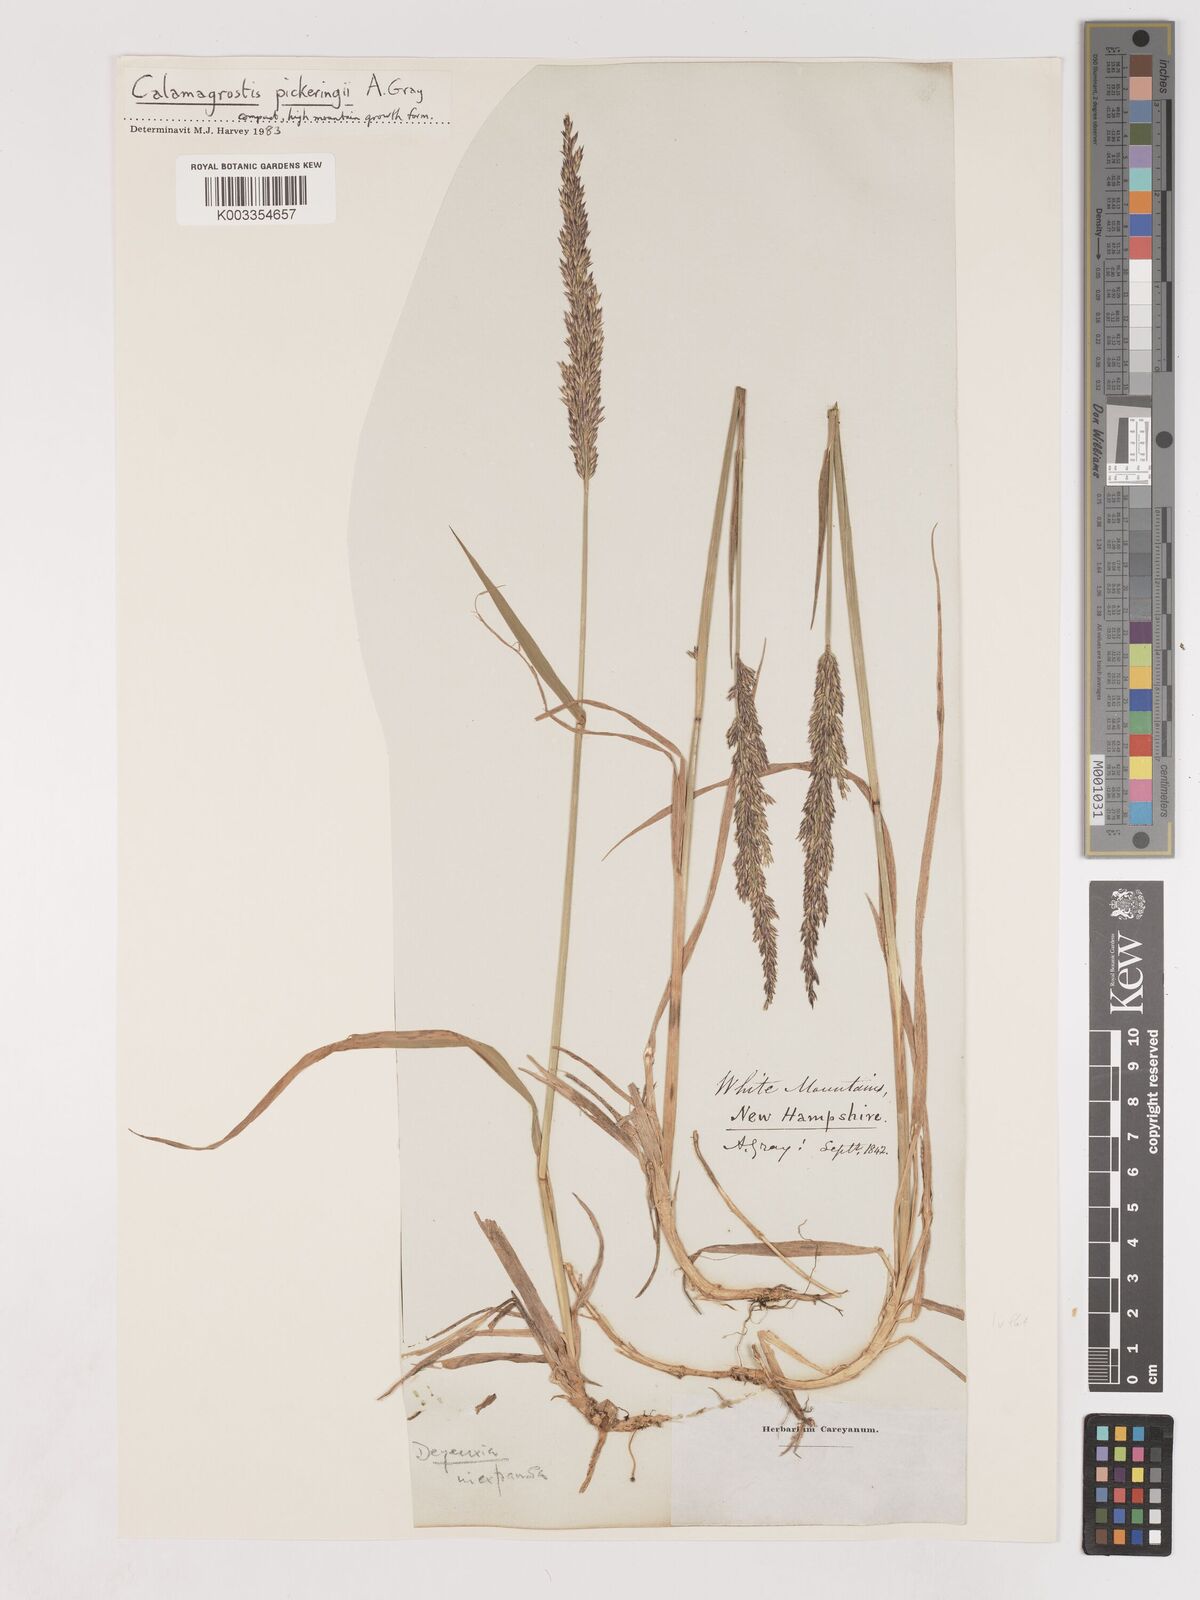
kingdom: Plantae
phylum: Tracheophyta
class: Liliopsida
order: Poales
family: Poaceae
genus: Calamagrostis
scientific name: Calamagrostis pickeringii
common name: Pickering's reed bentgrass
